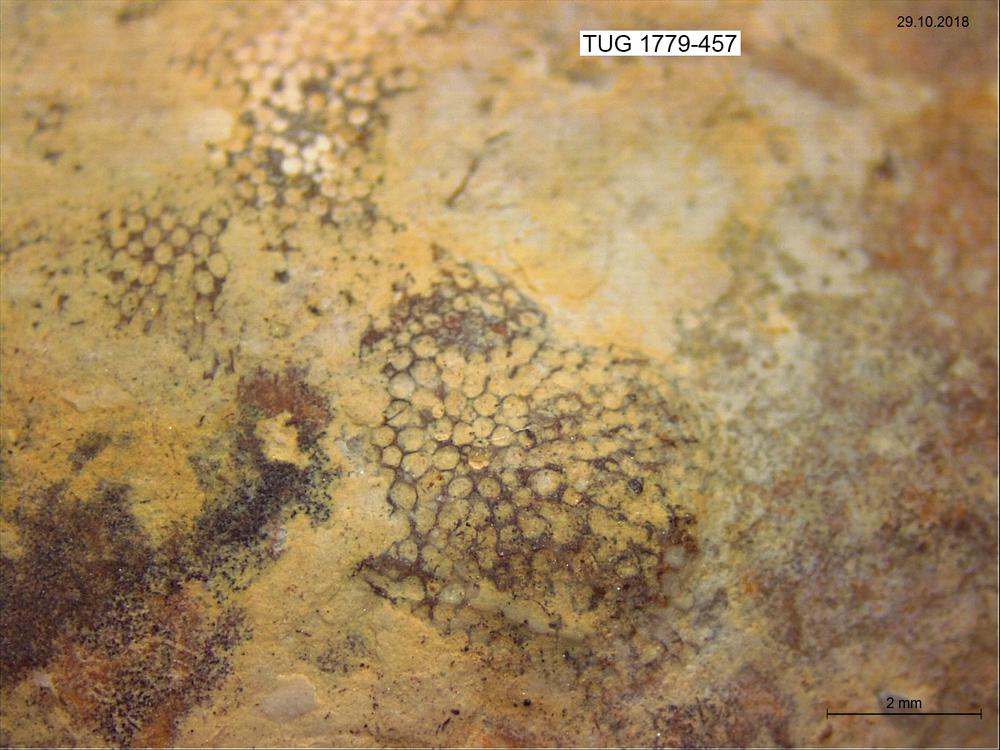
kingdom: Animalia
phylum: Bryozoa
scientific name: Bryozoa
